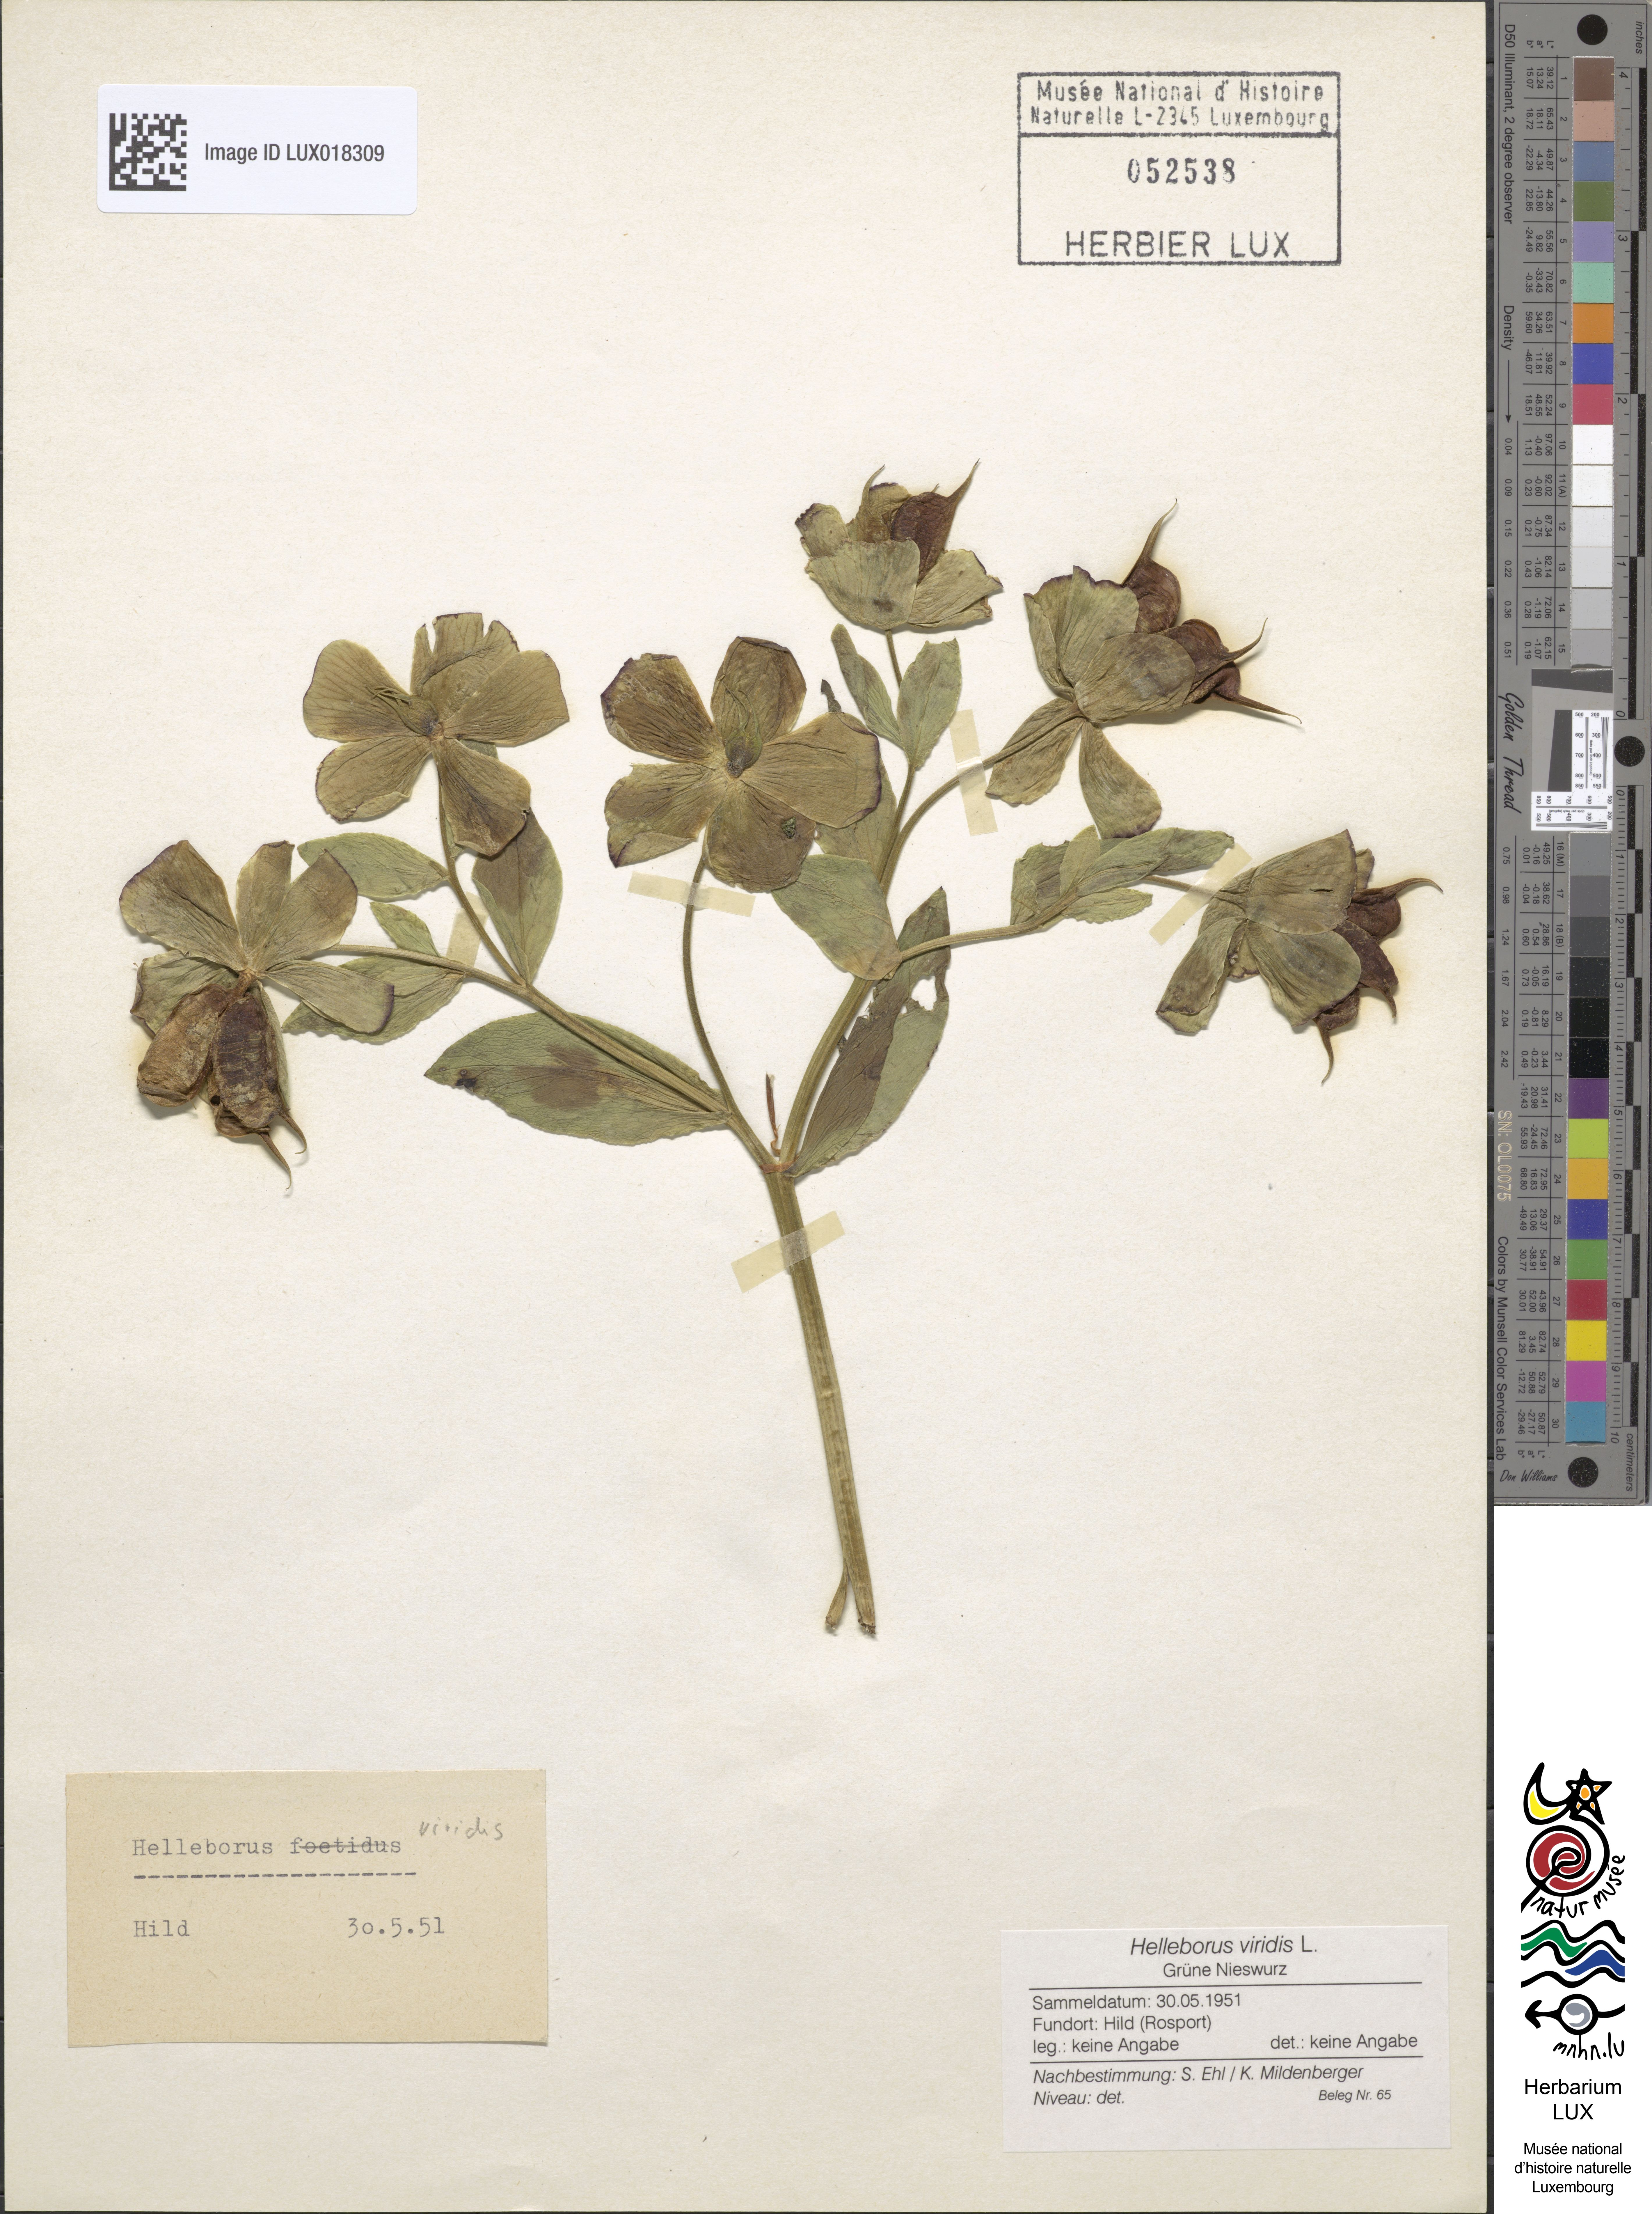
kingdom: Plantae
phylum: Tracheophyta
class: Magnoliopsida
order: Ranunculales
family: Ranunculaceae
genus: Helleborus
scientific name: Helleborus viridis
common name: Green hellebore
